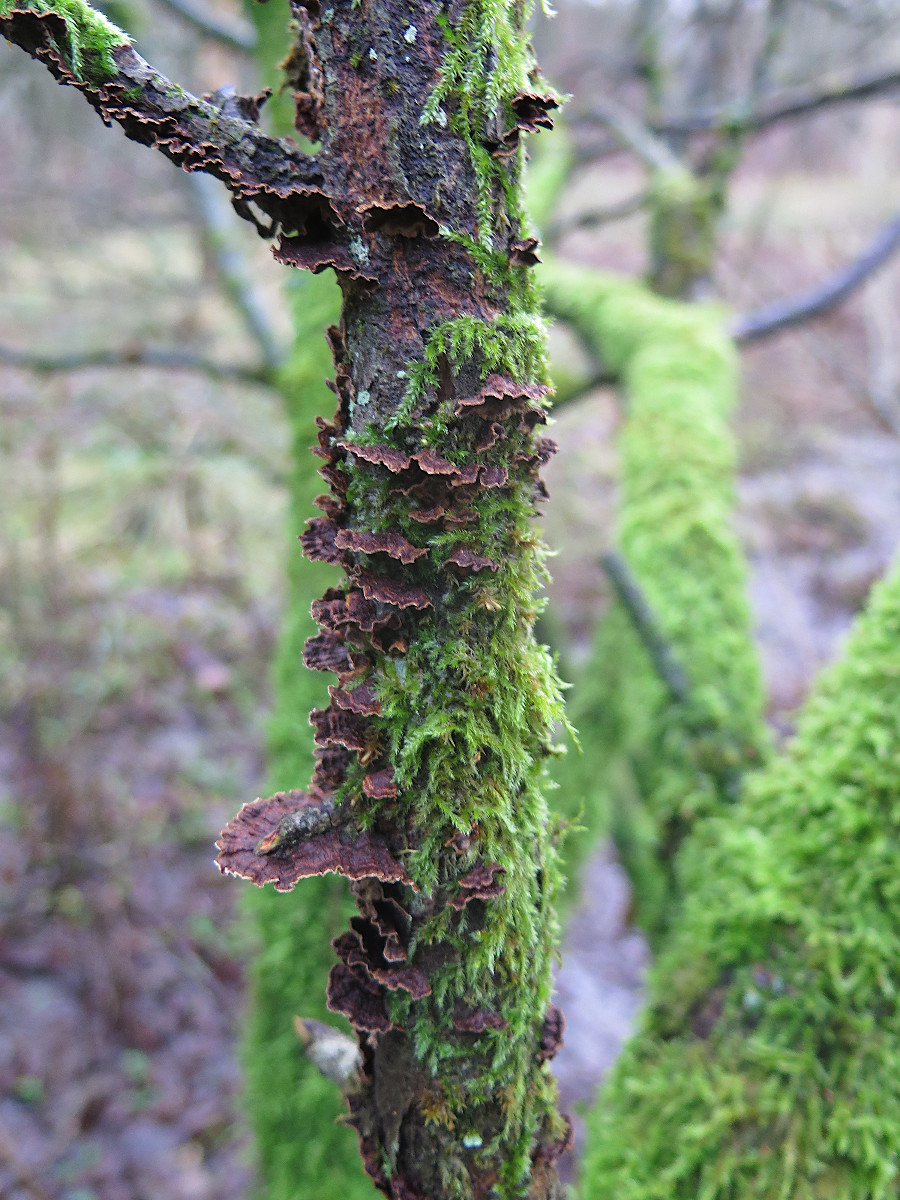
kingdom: Fungi
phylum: Basidiomycota
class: Agaricomycetes
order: Hymenochaetales
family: Hymenochaetaceae
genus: Hydnoporia
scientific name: Hydnoporia tabacina
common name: tobaksbrun ruslædersvamp
